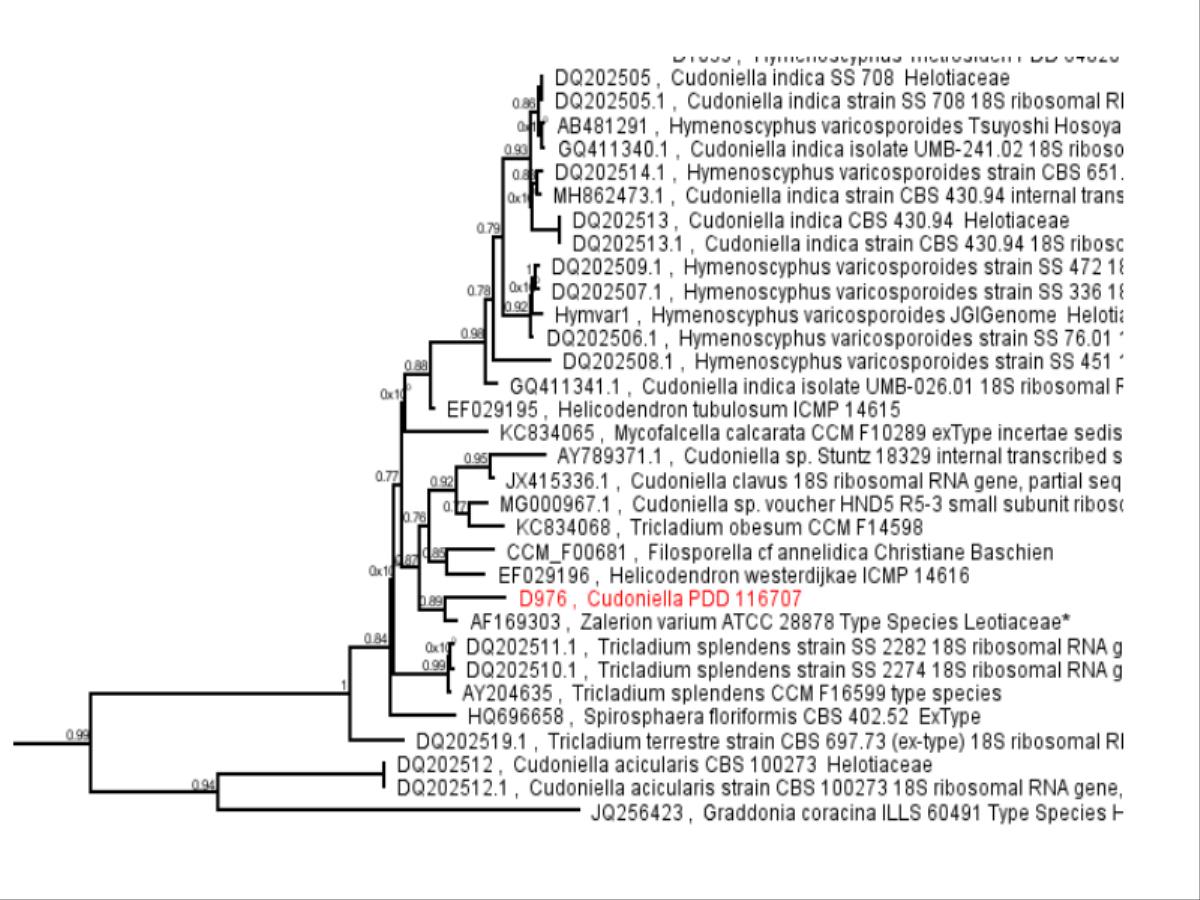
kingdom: Fungi
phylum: Ascomycota
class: Leotiomycetes
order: Helotiales
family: Tricladiaceae
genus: Cudoniella
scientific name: Cudoniella
